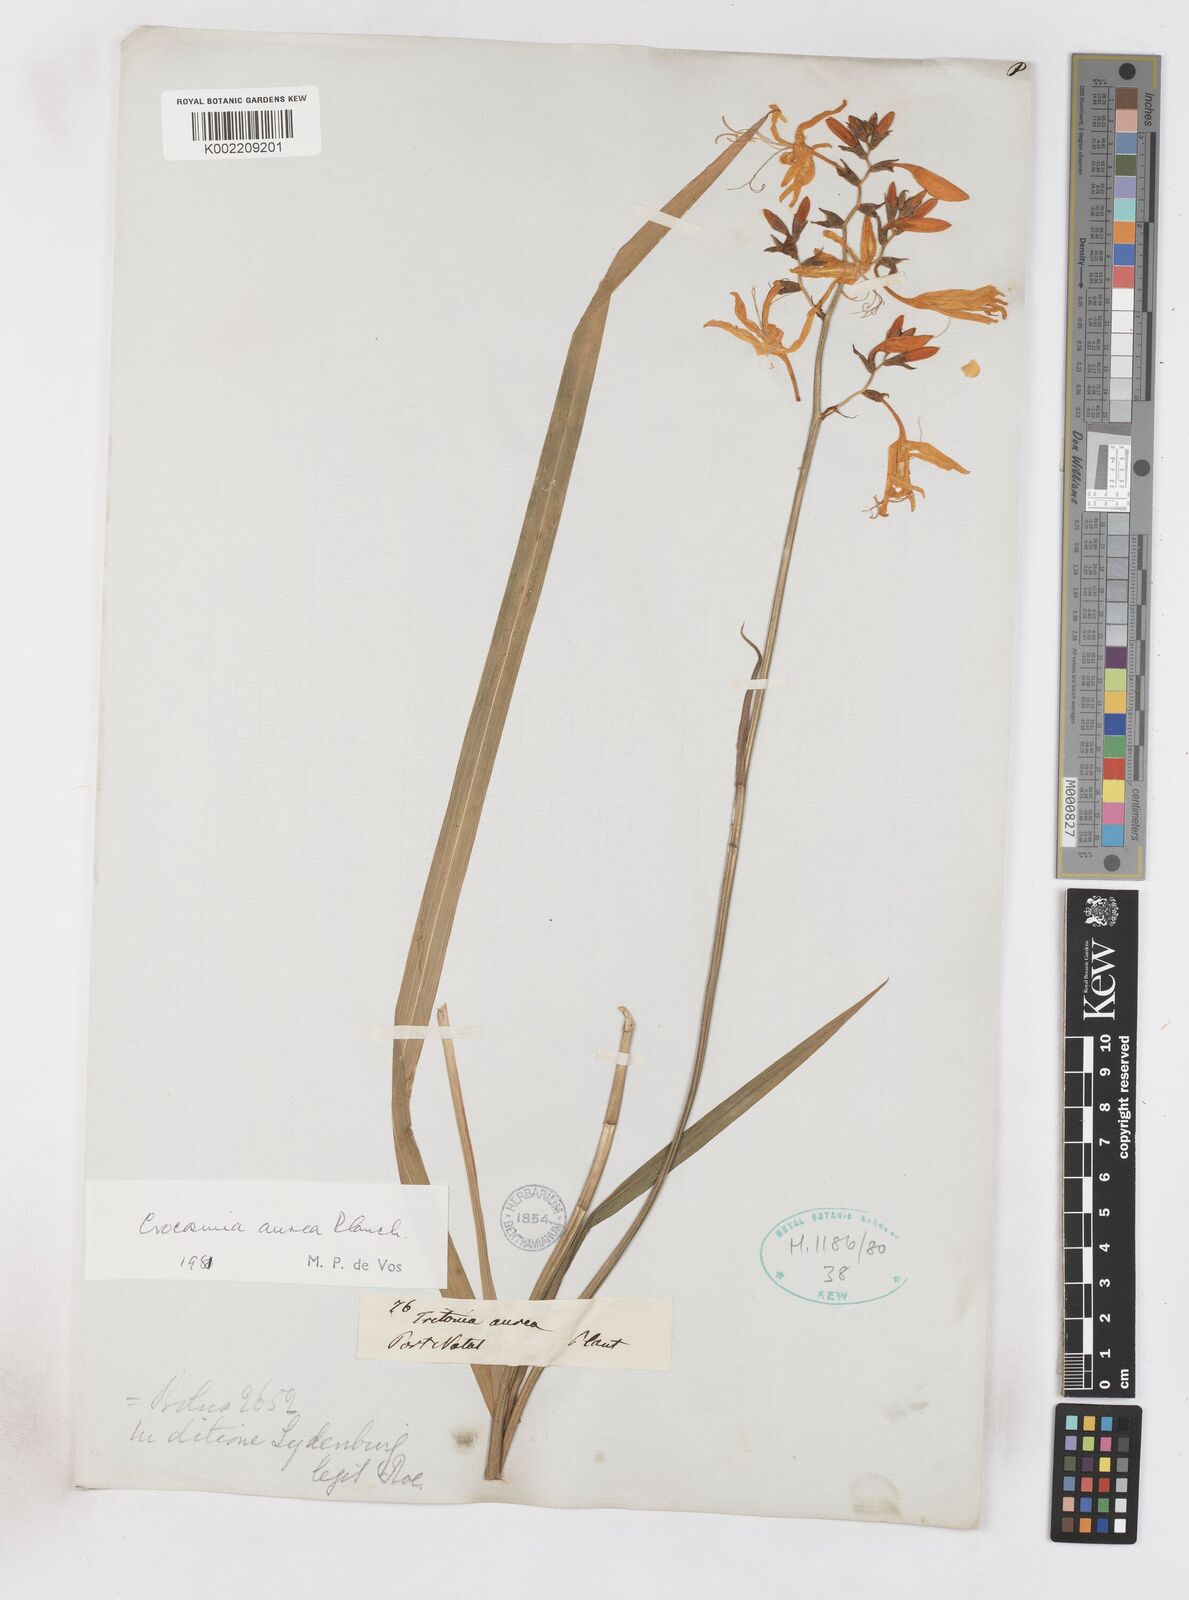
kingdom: Plantae
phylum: Tracheophyta
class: Liliopsida
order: Asparagales
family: Iridaceae
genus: Crocosmia
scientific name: Crocosmia aurea
